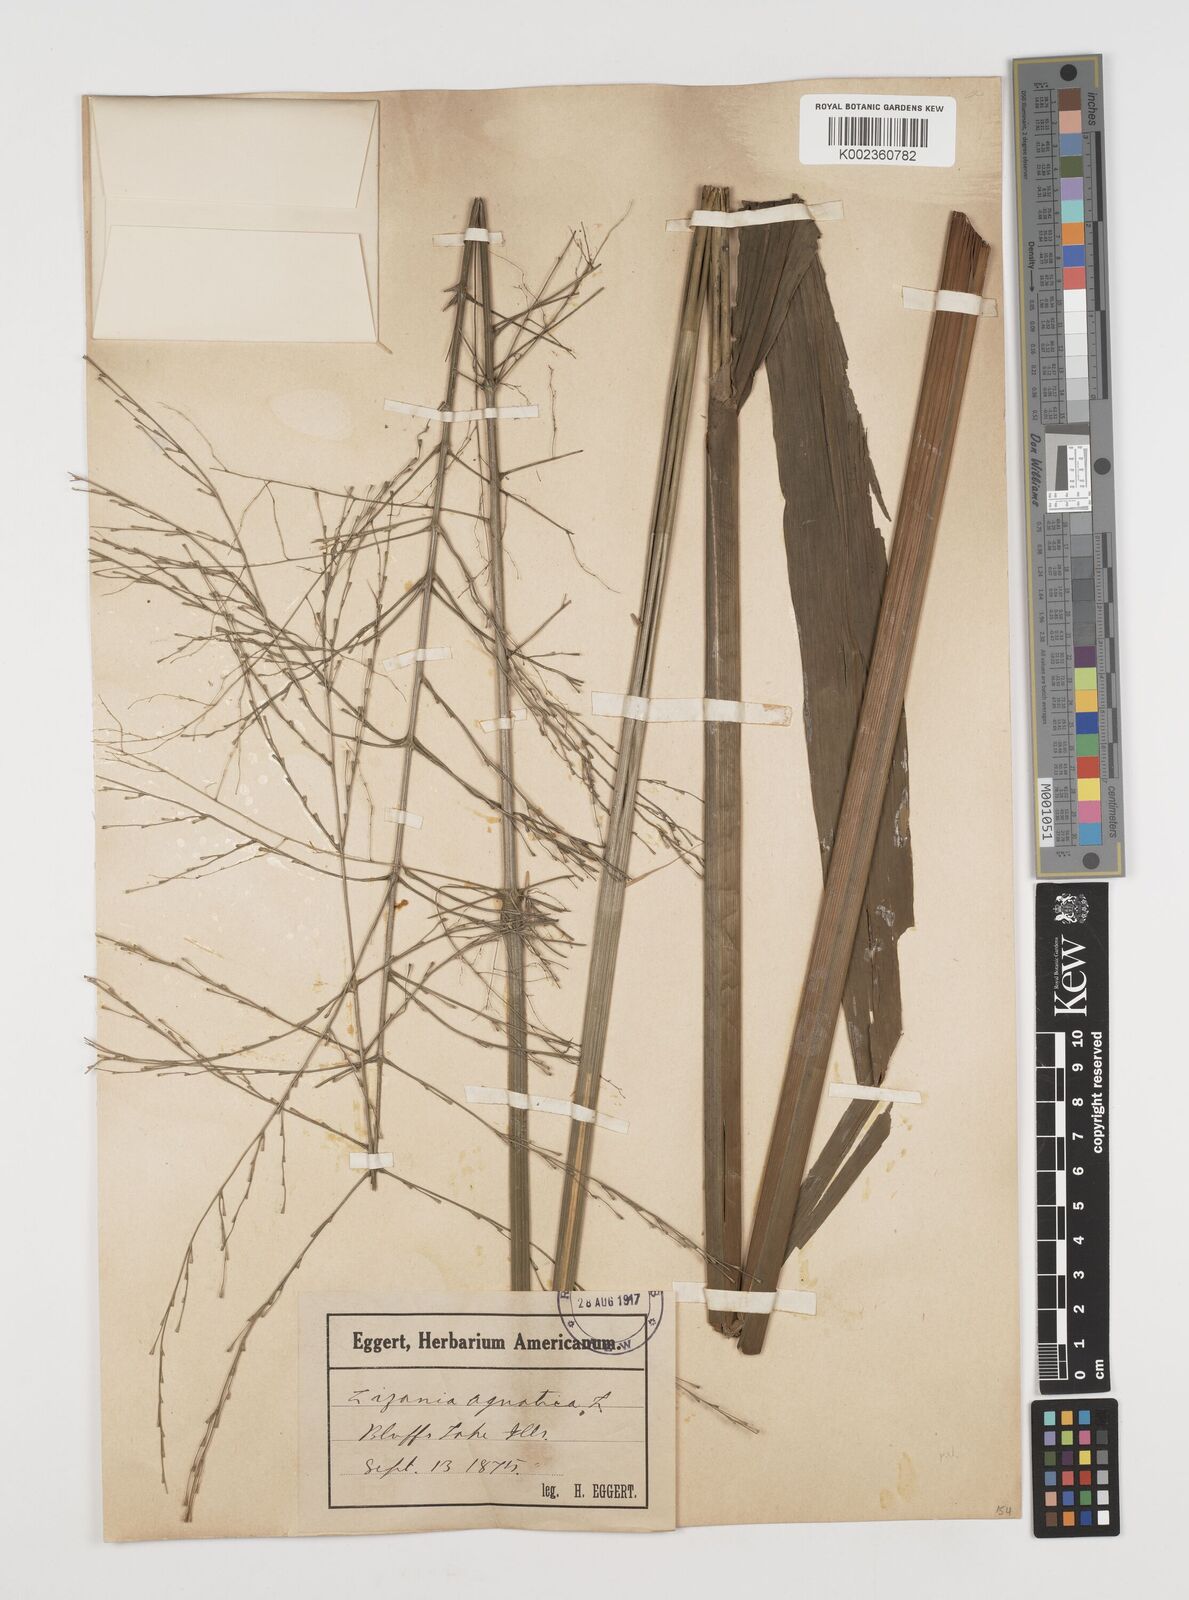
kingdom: Plantae
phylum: Tracheophyta
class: Liliopsida
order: Poales
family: Poaceae
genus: Zizania
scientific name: Zizania palustris
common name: Northern wild rice
